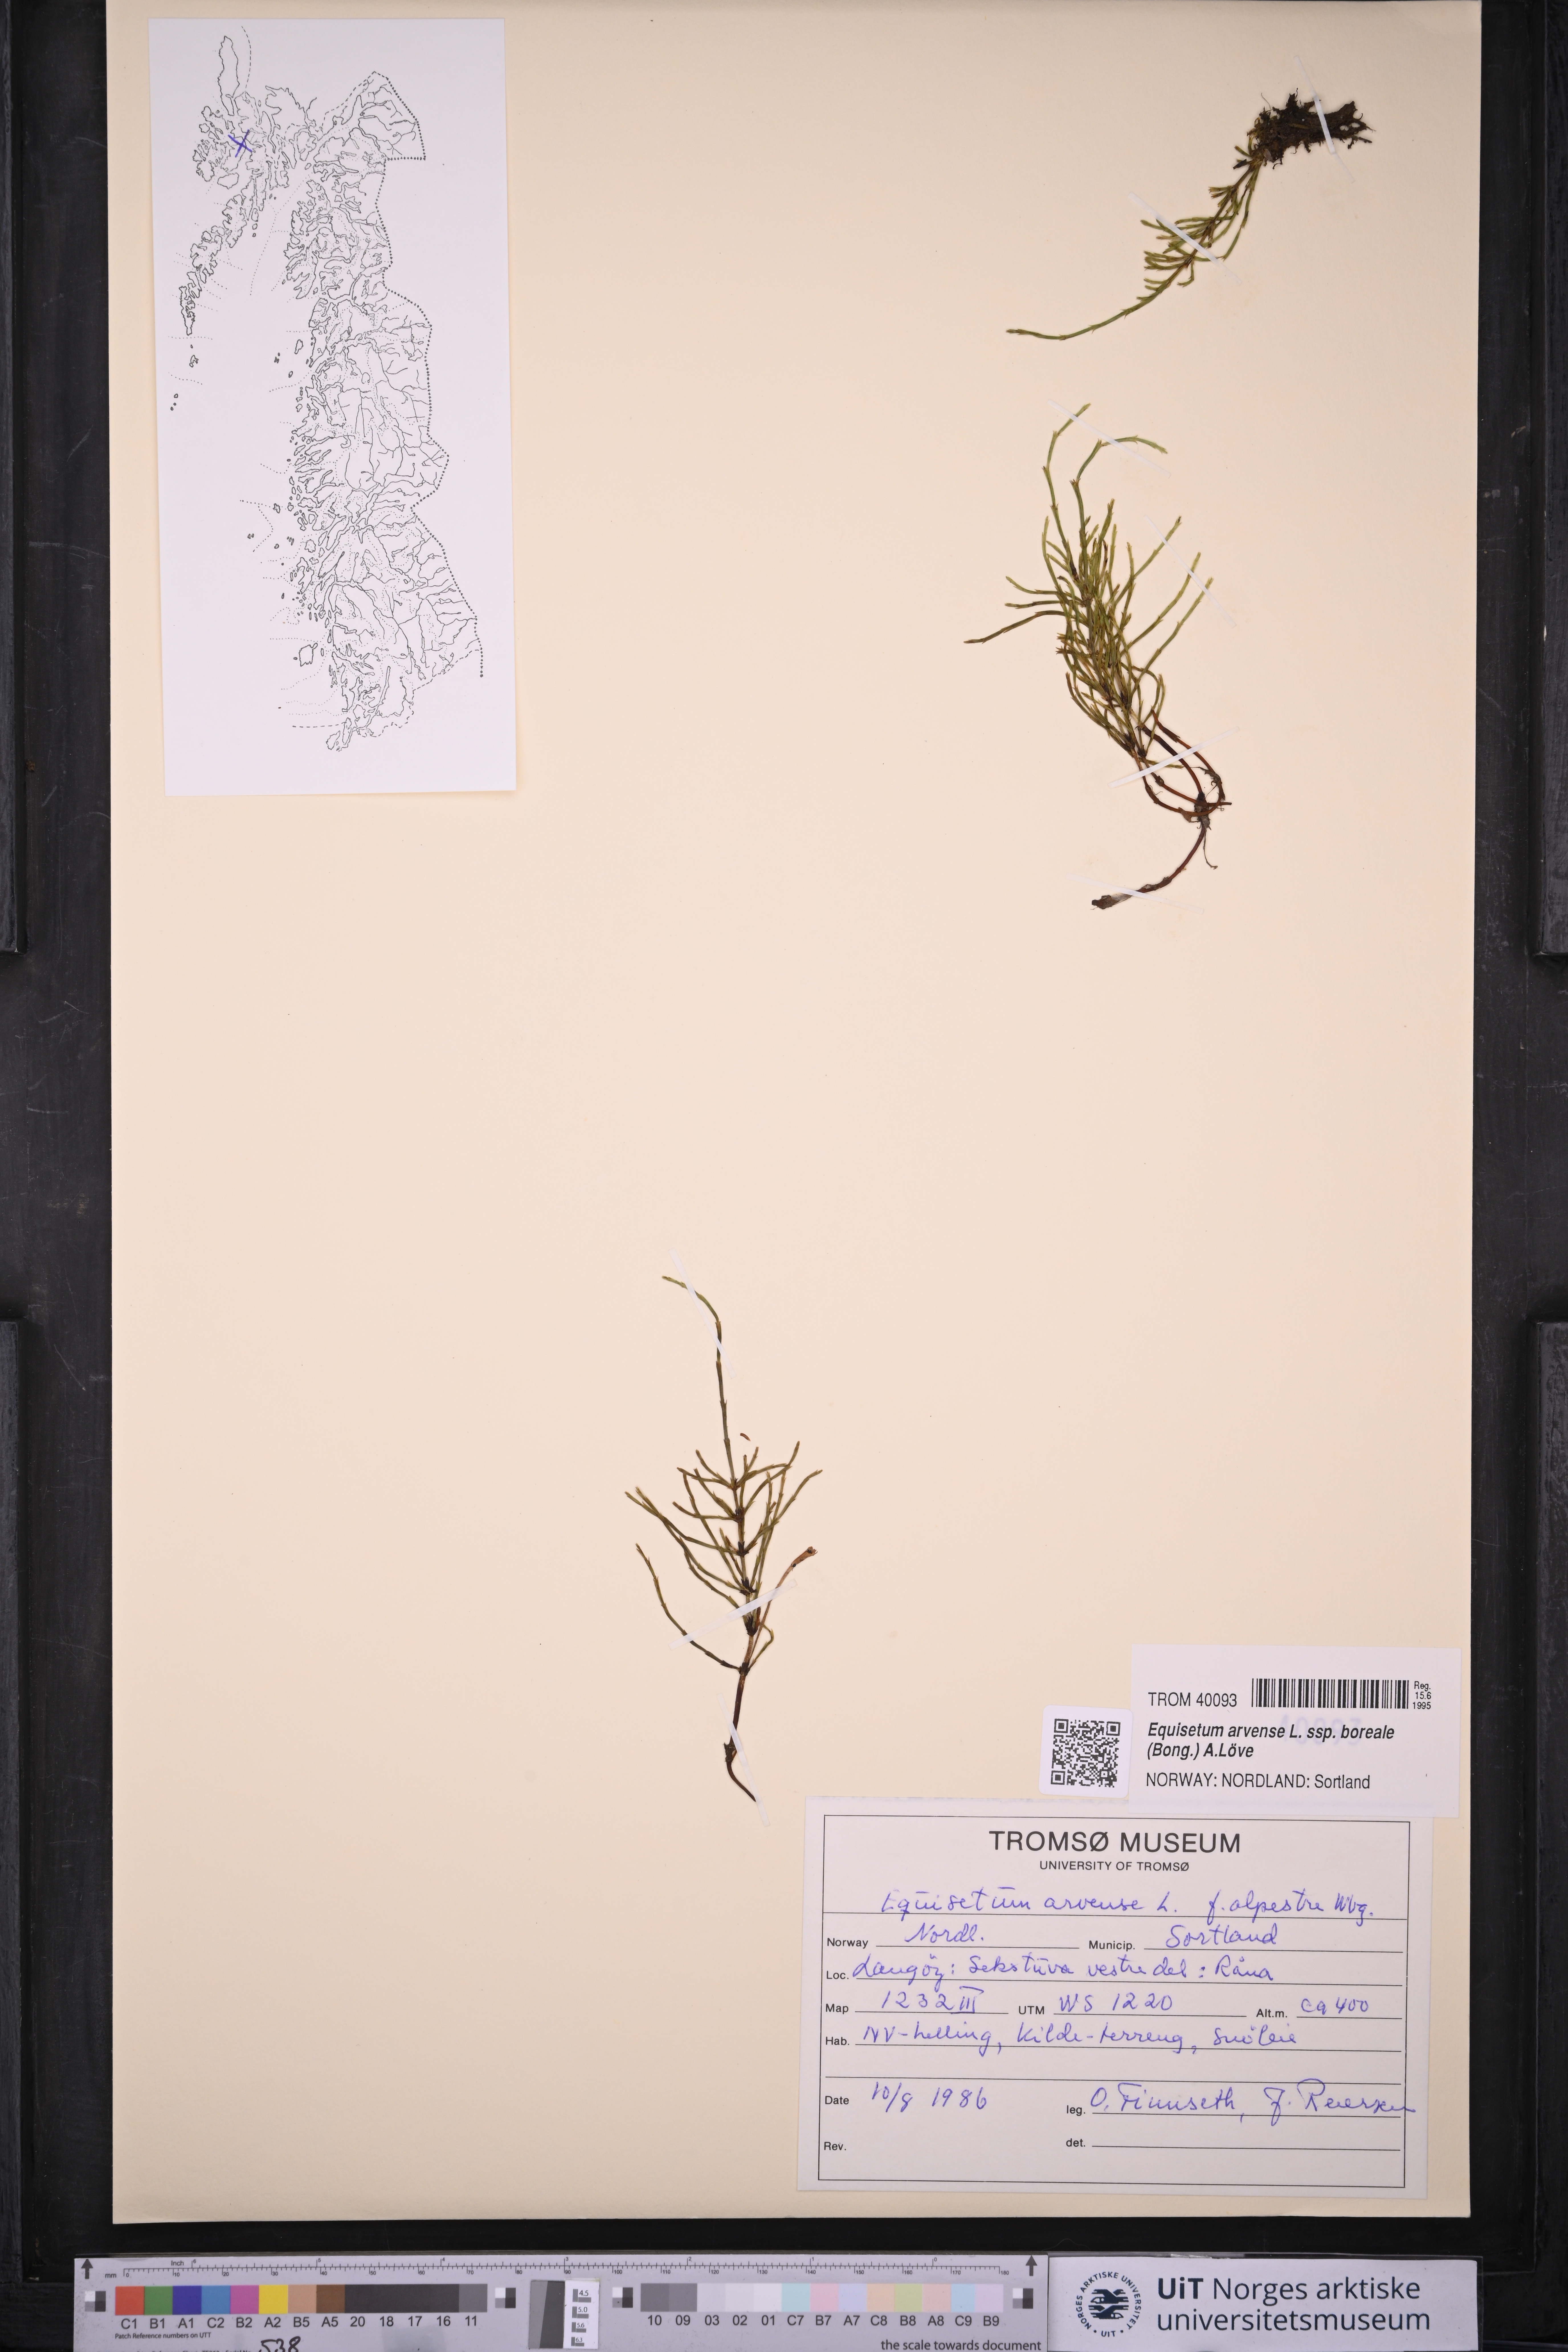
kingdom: Plantae
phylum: Tracheophyta
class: Polypodiopsida
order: Equisetales
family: Equisetaceae
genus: Equisetum
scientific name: Equisetum arvense
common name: Field horsetail
